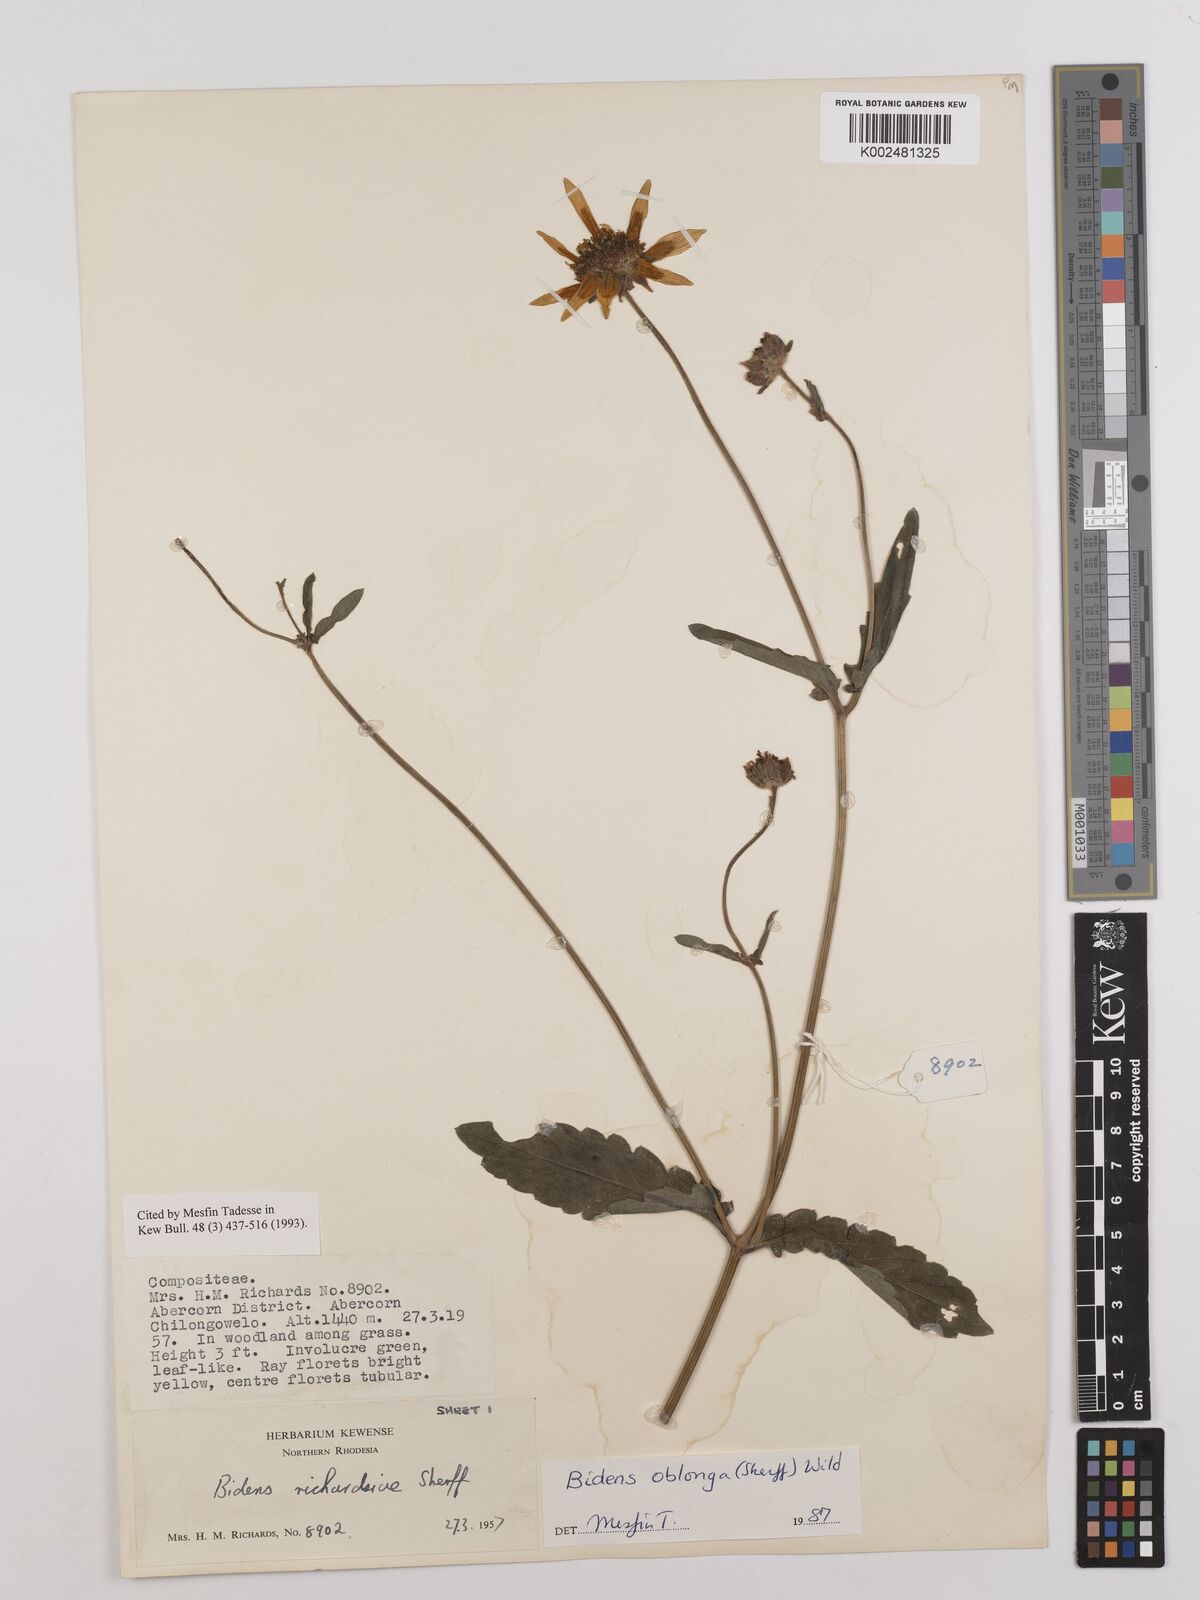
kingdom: Plantae
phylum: Tracheophyta
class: Magnoliopsida
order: Asterales
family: Asteraceae
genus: Bidens
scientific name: Bidens oblonga
